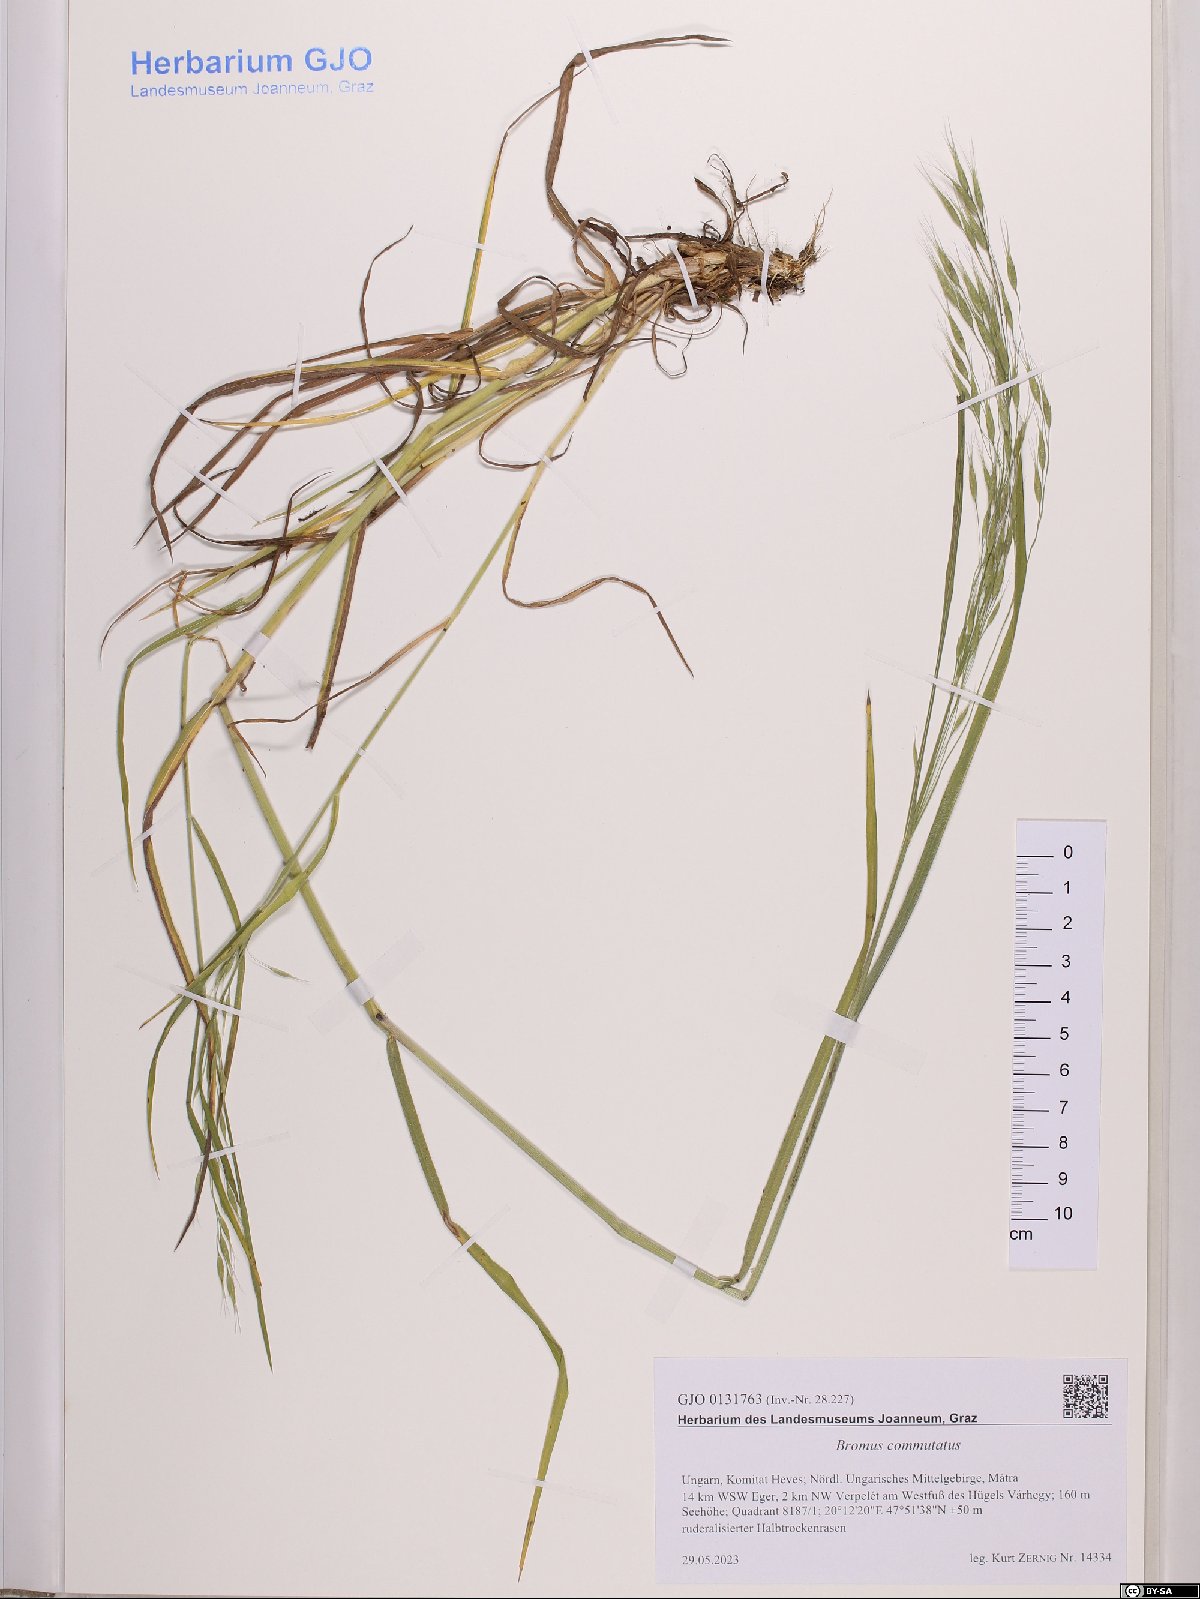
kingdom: Plantae
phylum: Tracheophyta
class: Liliopsida
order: Poales
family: Poaceae
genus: Bromus
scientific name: Bromus commutatus
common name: Meadow brome
